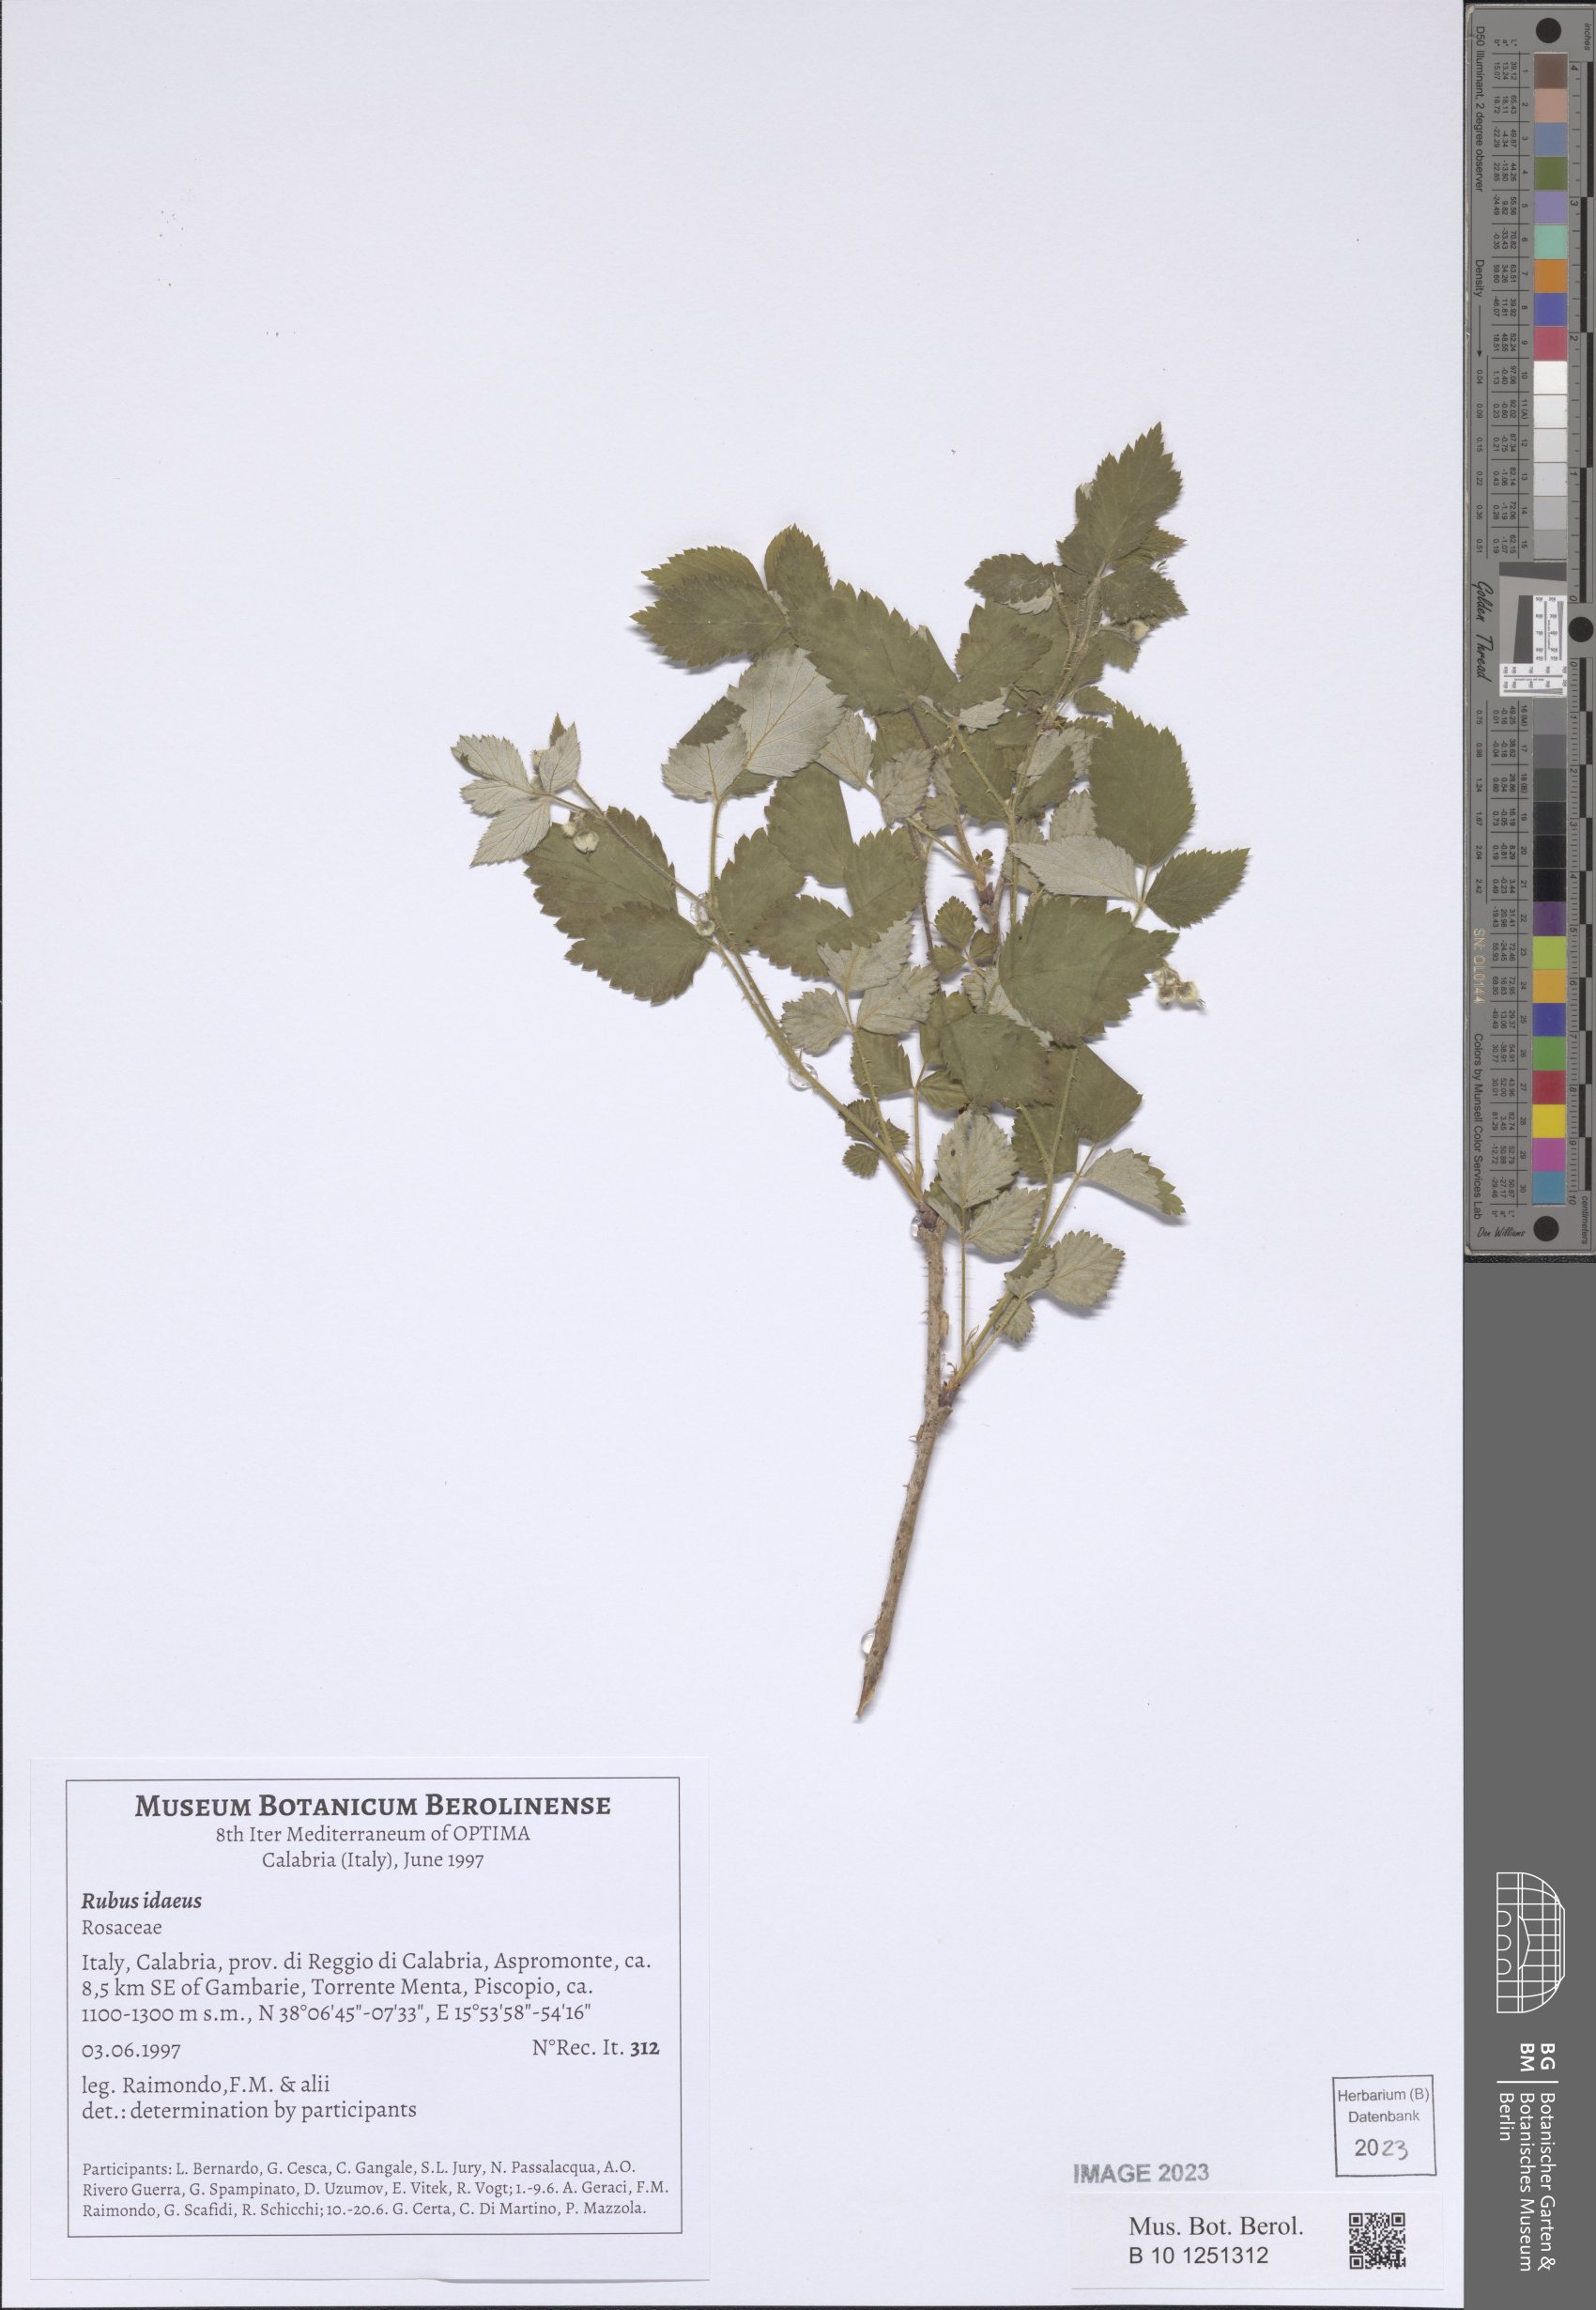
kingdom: Plantae
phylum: Tracheophyta
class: Magnoliopsida
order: Rosales
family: Rosaceae
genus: Rubus
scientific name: Rubus idaeus
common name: Raspberry
